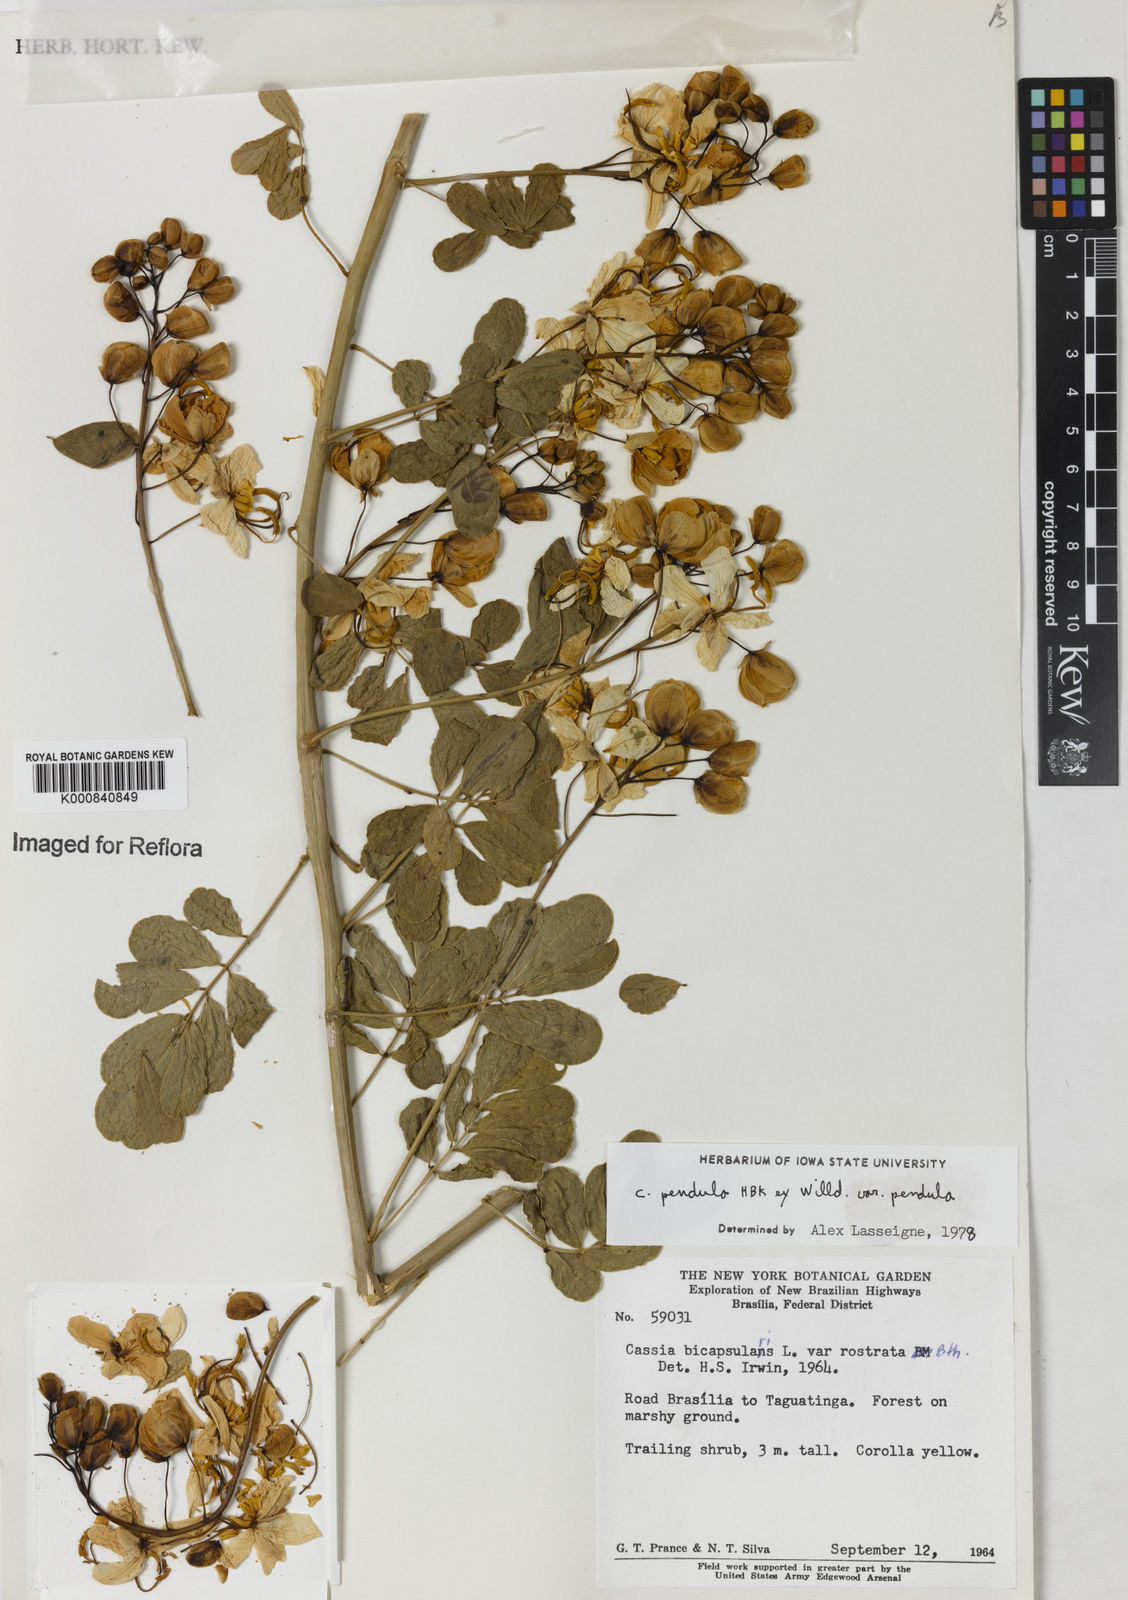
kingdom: Plantae
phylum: Tracheophyta
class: Magnoliopsida
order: Fabales
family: Fabaceae
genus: Senna
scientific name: Senna pendula
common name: Easter cassia
